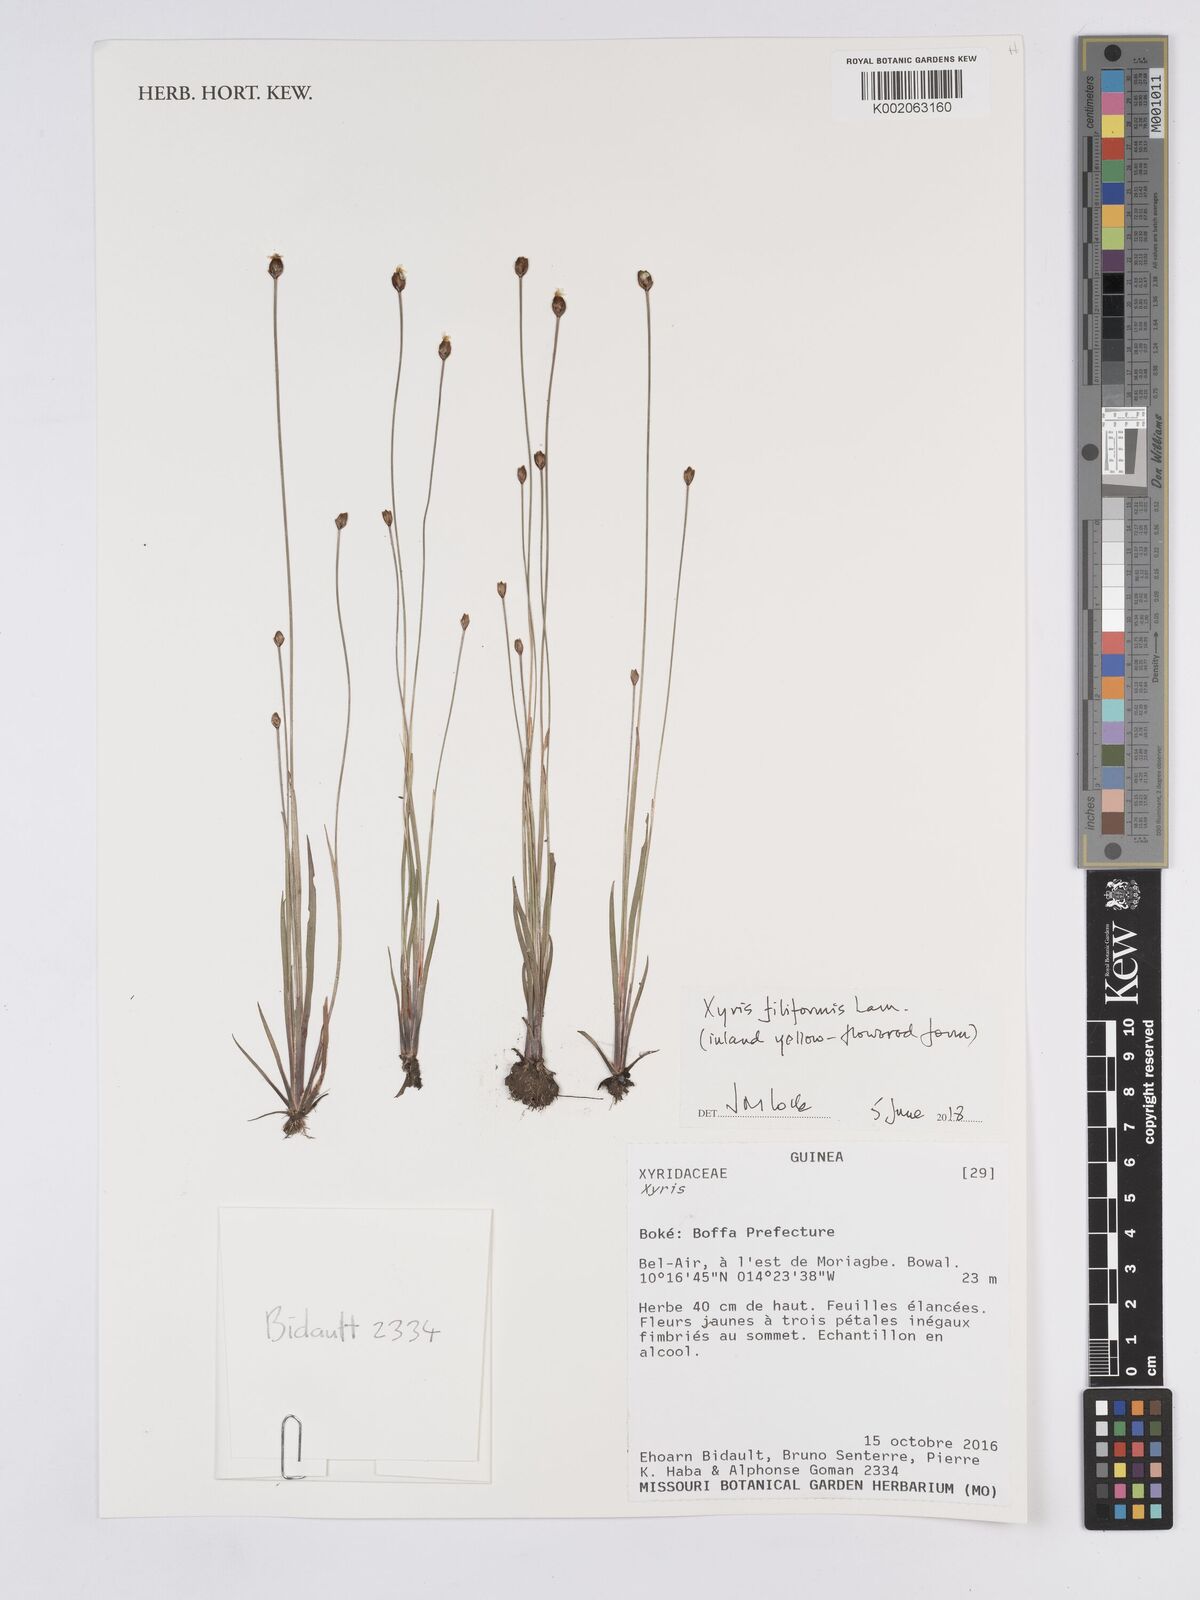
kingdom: Plantae
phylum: Tracheophyta
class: Liliopsida
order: Poales
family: Xyridaceae
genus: Xyris
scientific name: Xyris filiformis
